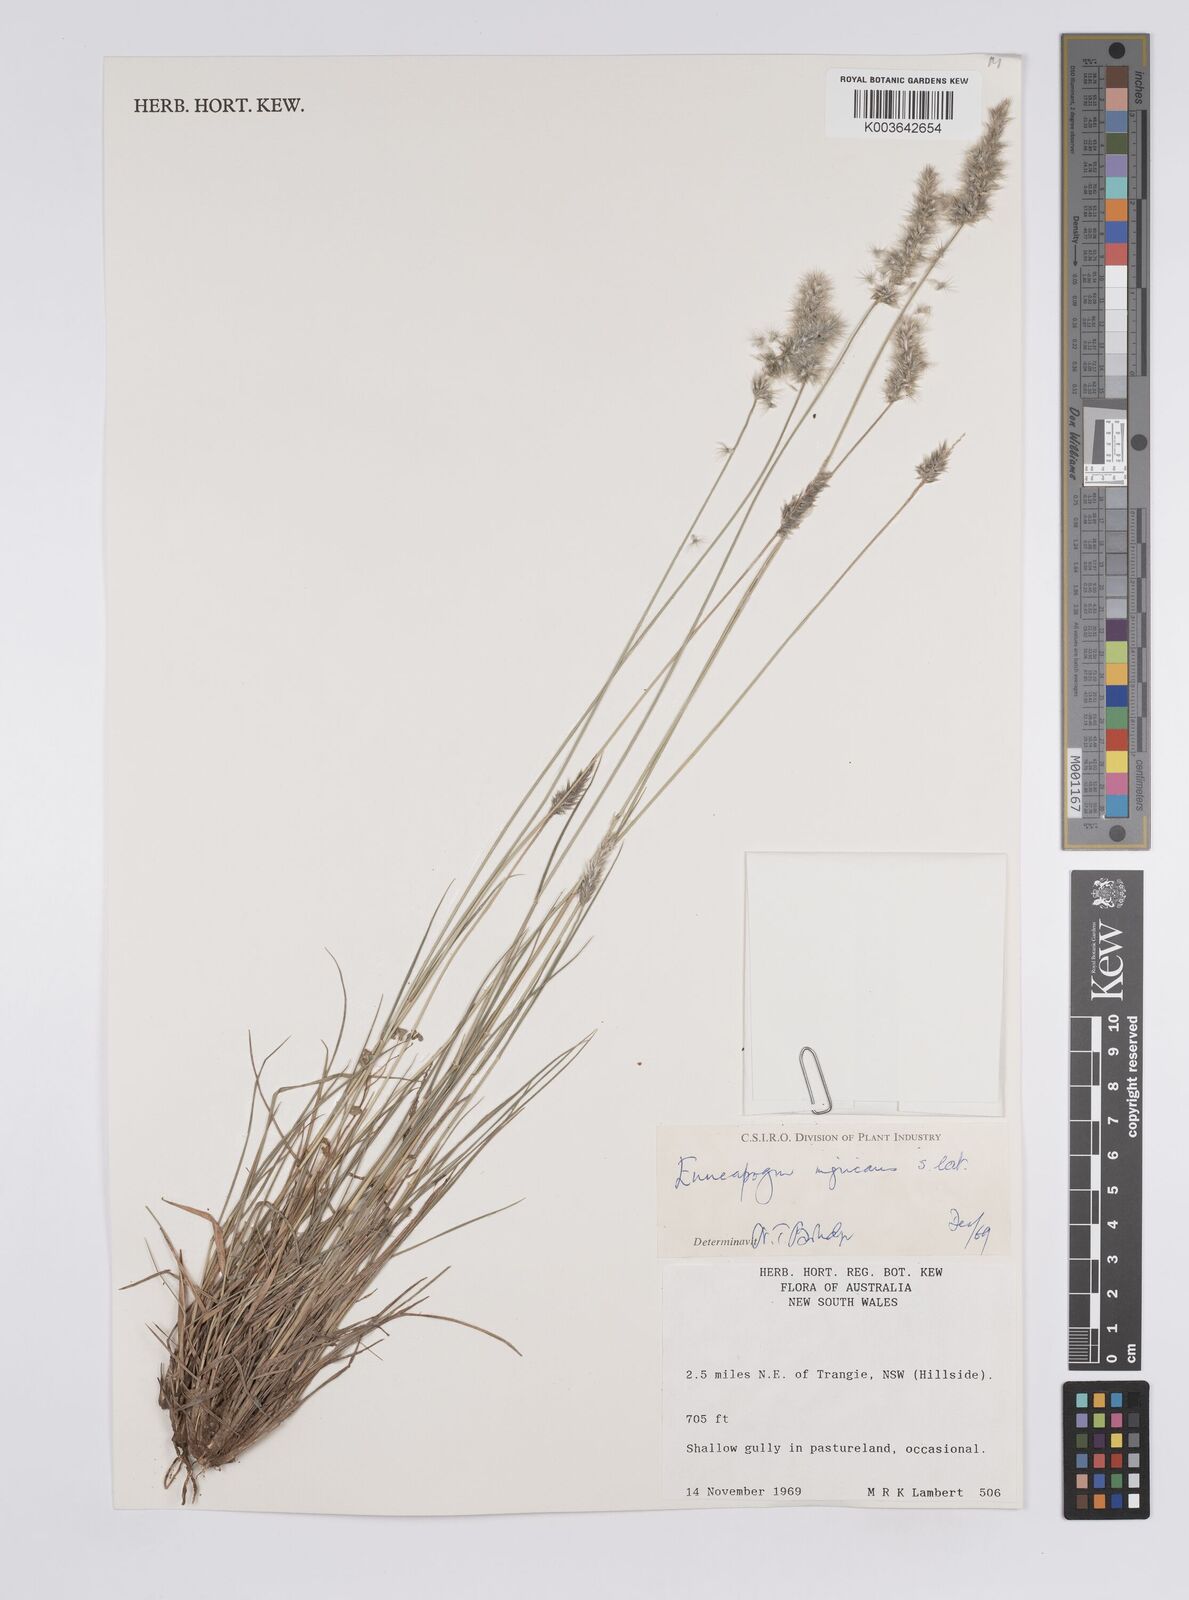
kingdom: Plantae
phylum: Tracheophyta
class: Liliopsida
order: Poales
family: Poaceae
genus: Enneapogon
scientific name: Enneapogon nigricans
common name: Pappus grass
